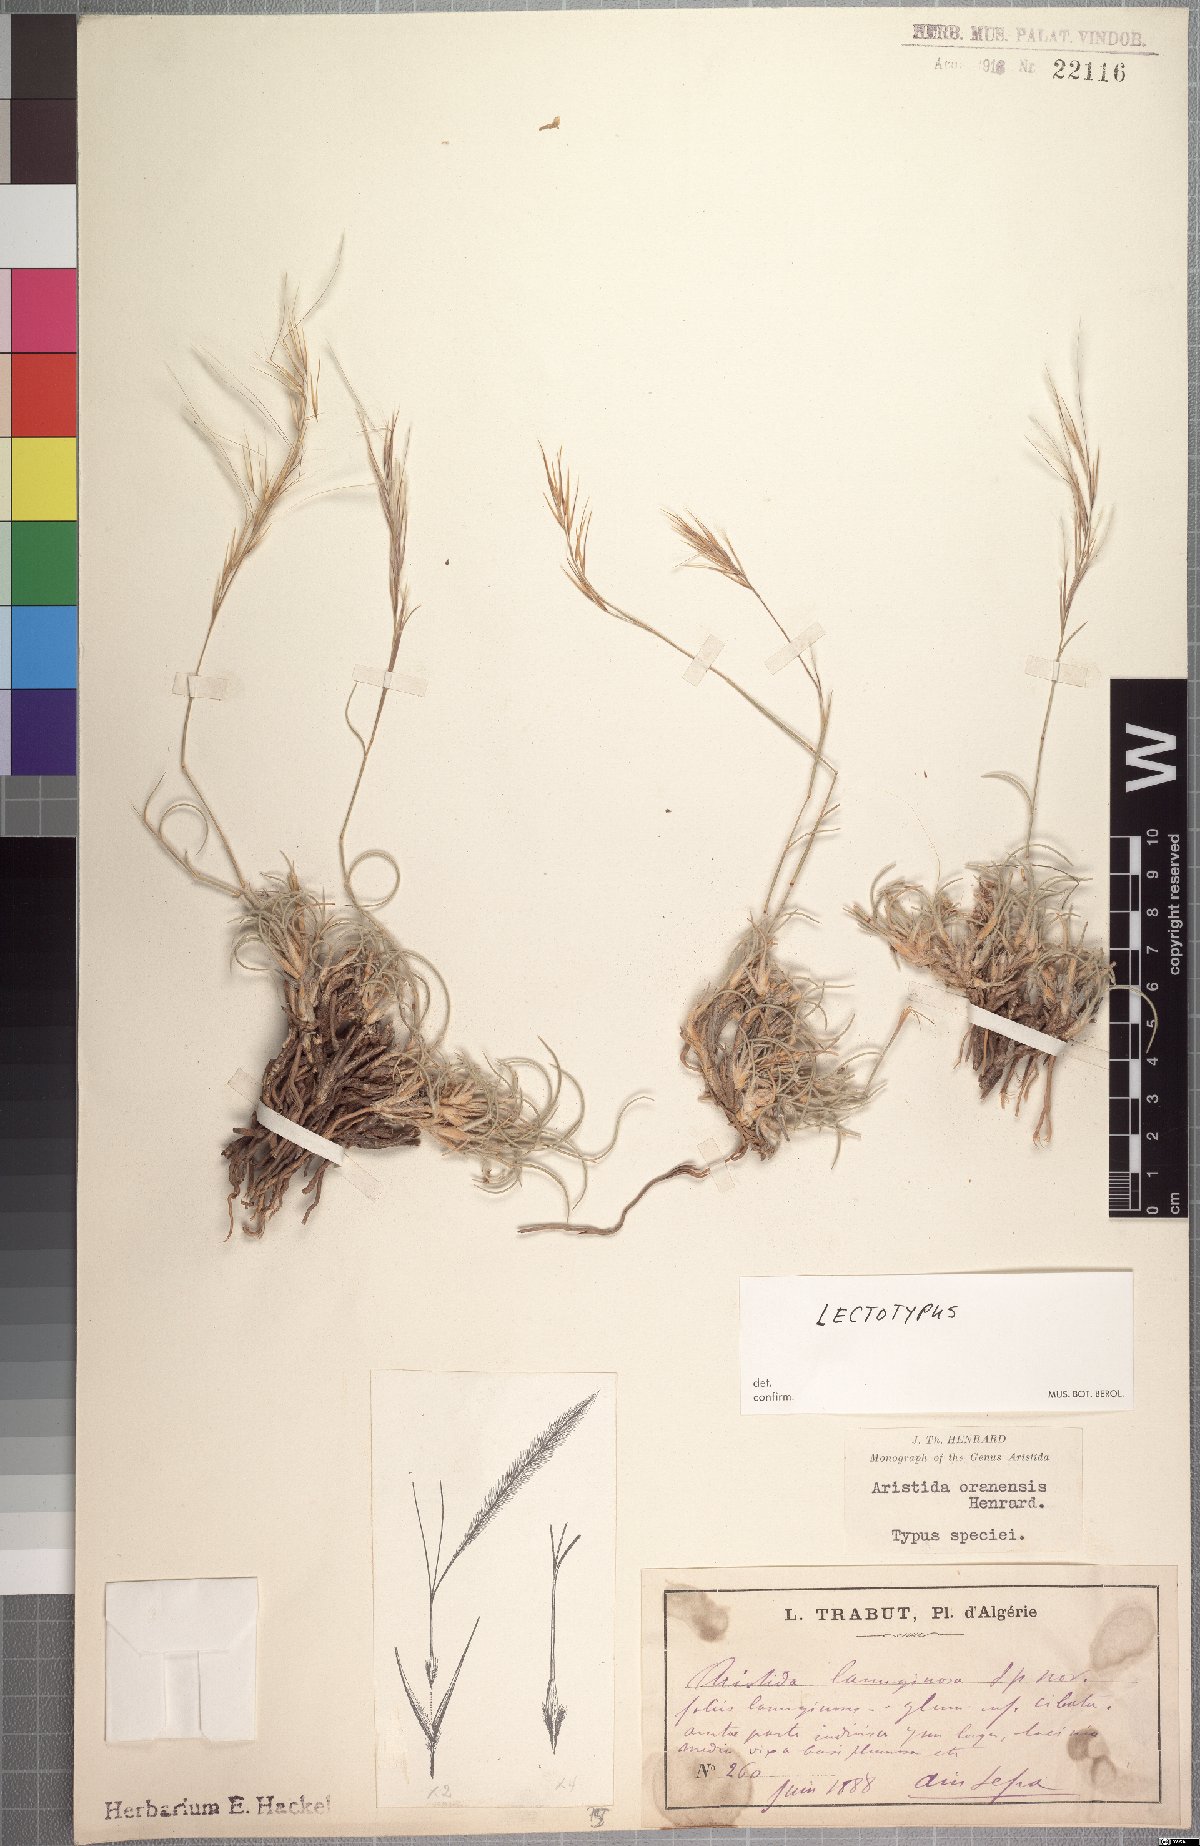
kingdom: Plantae
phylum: Tracheophyta
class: Liliopsida
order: Poales
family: Poaceae
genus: Stipagrostis
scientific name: Stipagrostis plumosa
